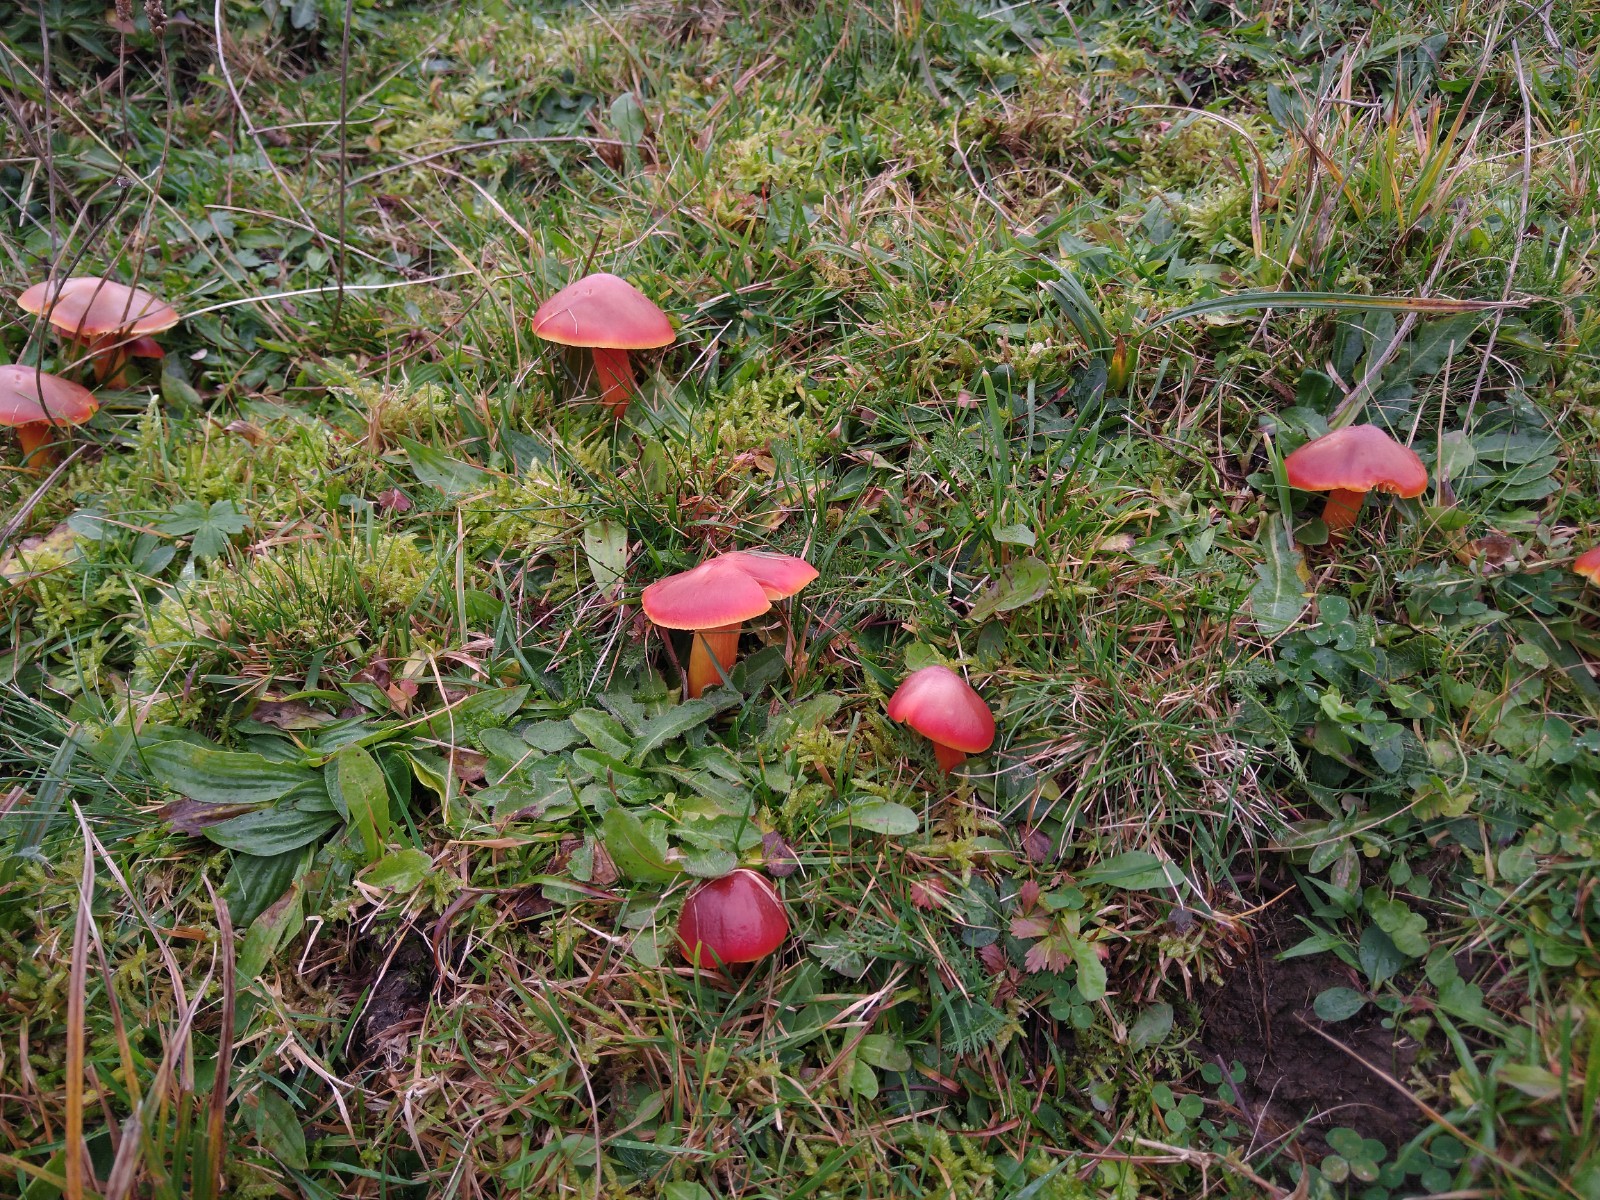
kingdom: Fungi
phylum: Basidiomycota
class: Agaricomycetes
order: Agaricales
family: Hygrophoraceae
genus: Hygrocybe
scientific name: Hygrocybe punicea
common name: skarlagen-vokshat
